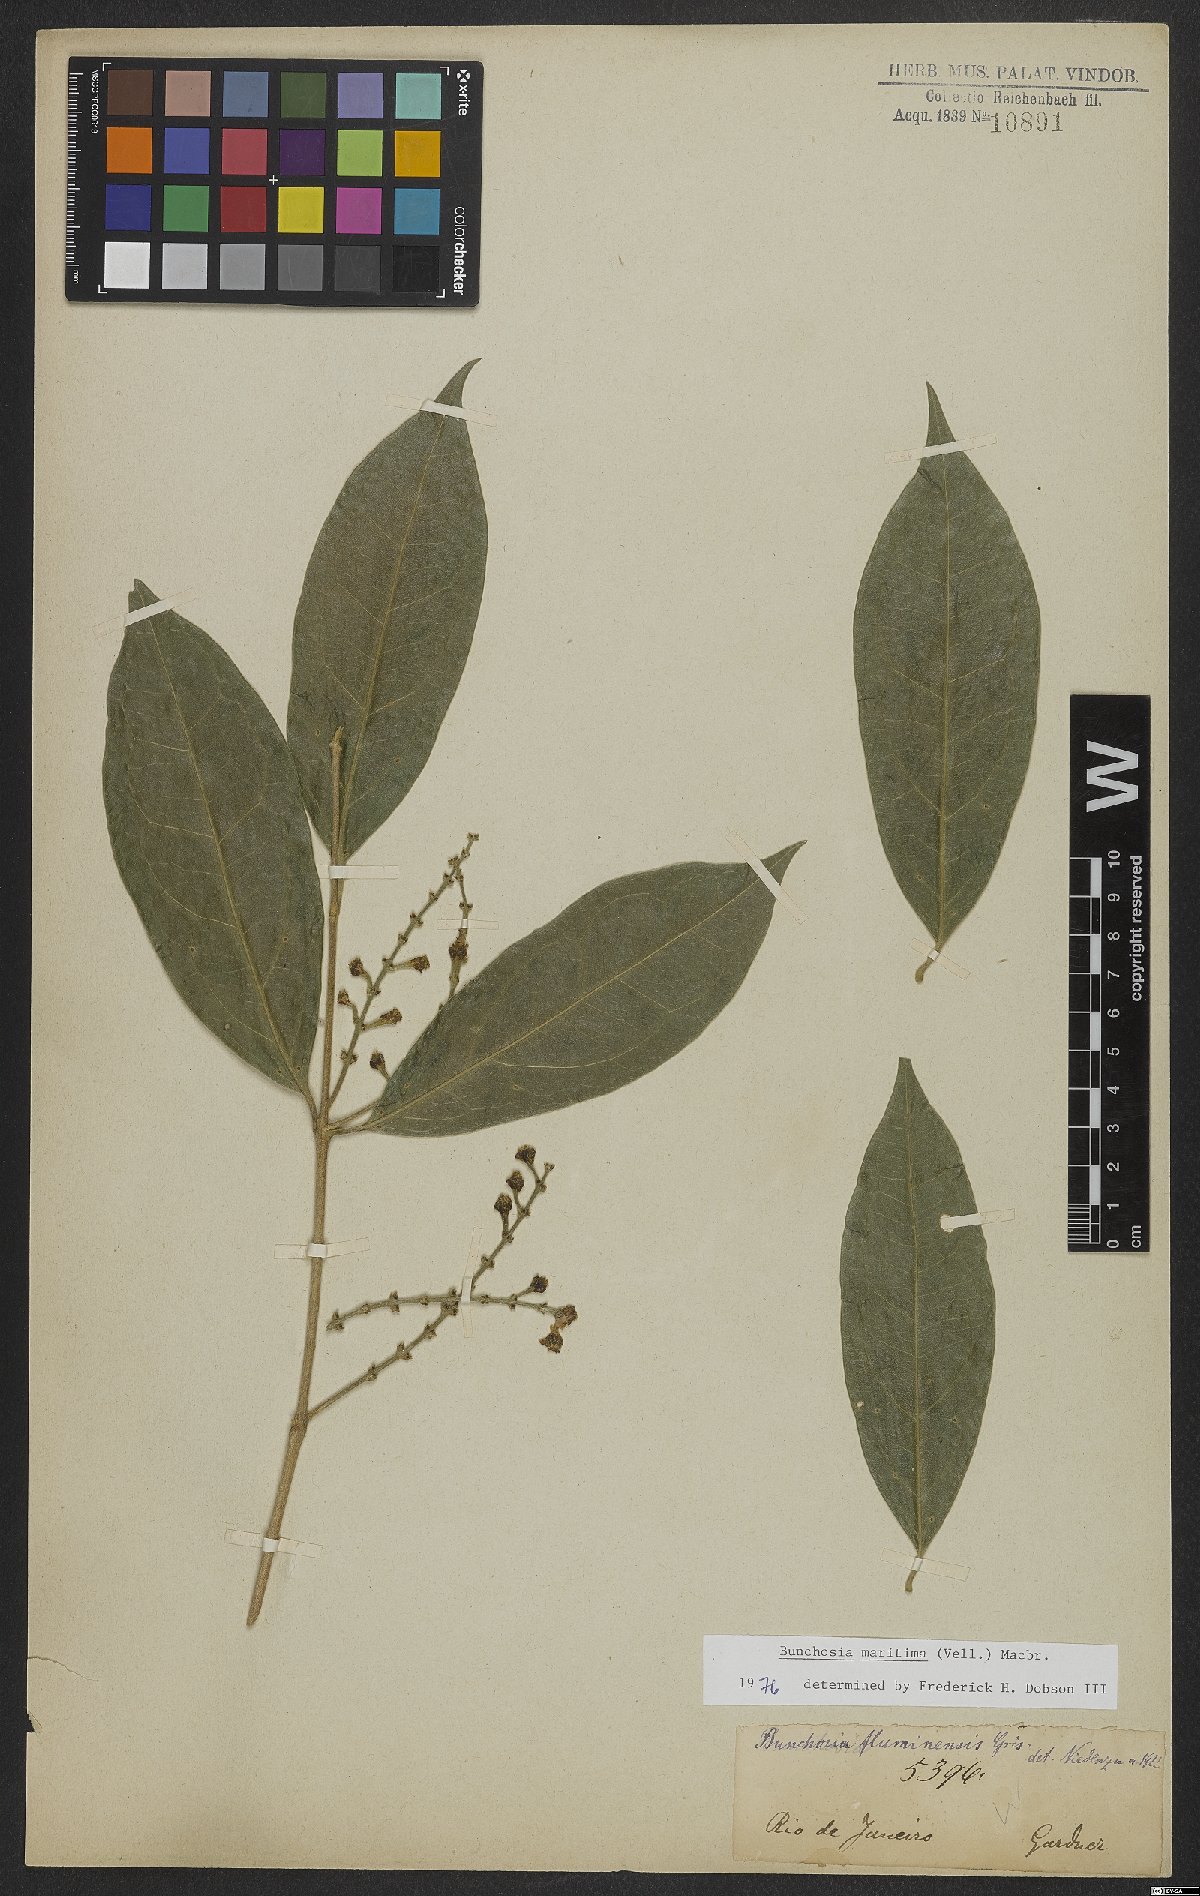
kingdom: Plantae
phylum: Tracheophyta
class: Magnoliopsida
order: Malpighiales
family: Malpighiaceae
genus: Bunchosia
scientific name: Bunchosia maritima
